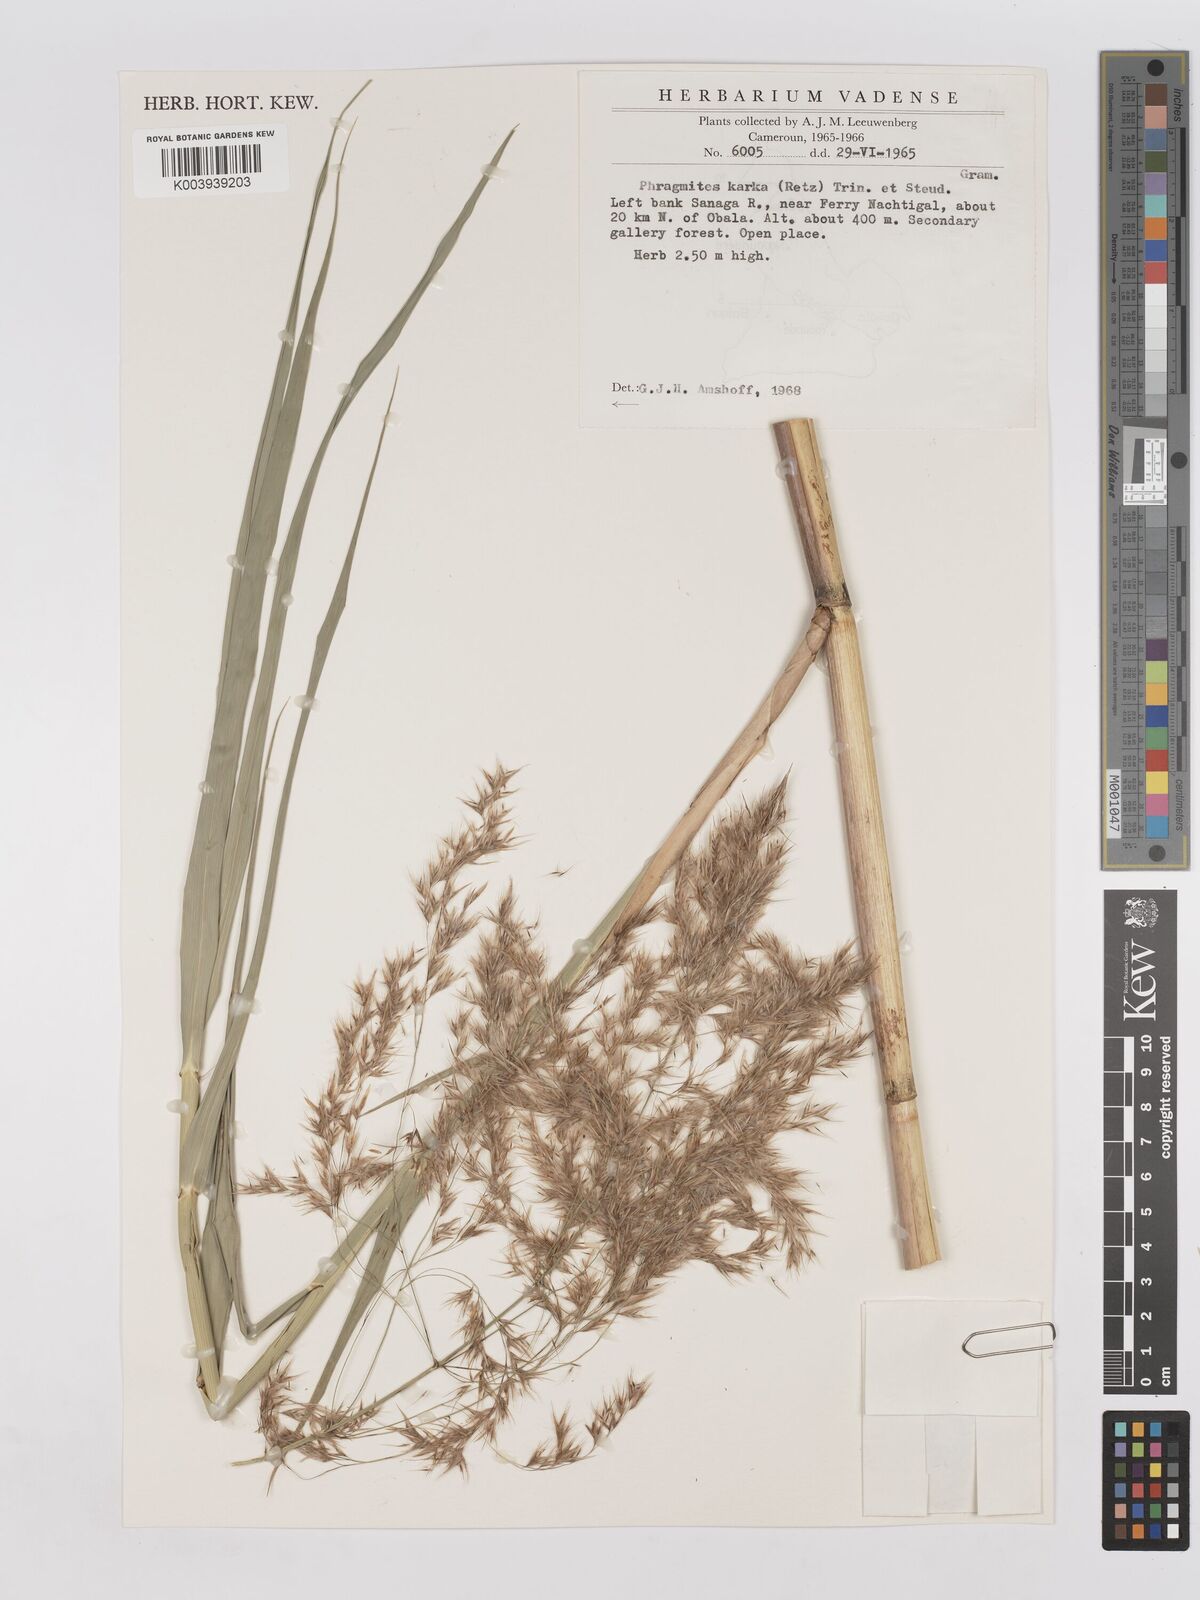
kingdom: Plantae
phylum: Tracheophyta
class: Liliopsida
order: Poales
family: Poaceae
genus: Phragmites
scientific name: Phragmites karka
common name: Tropical reed
